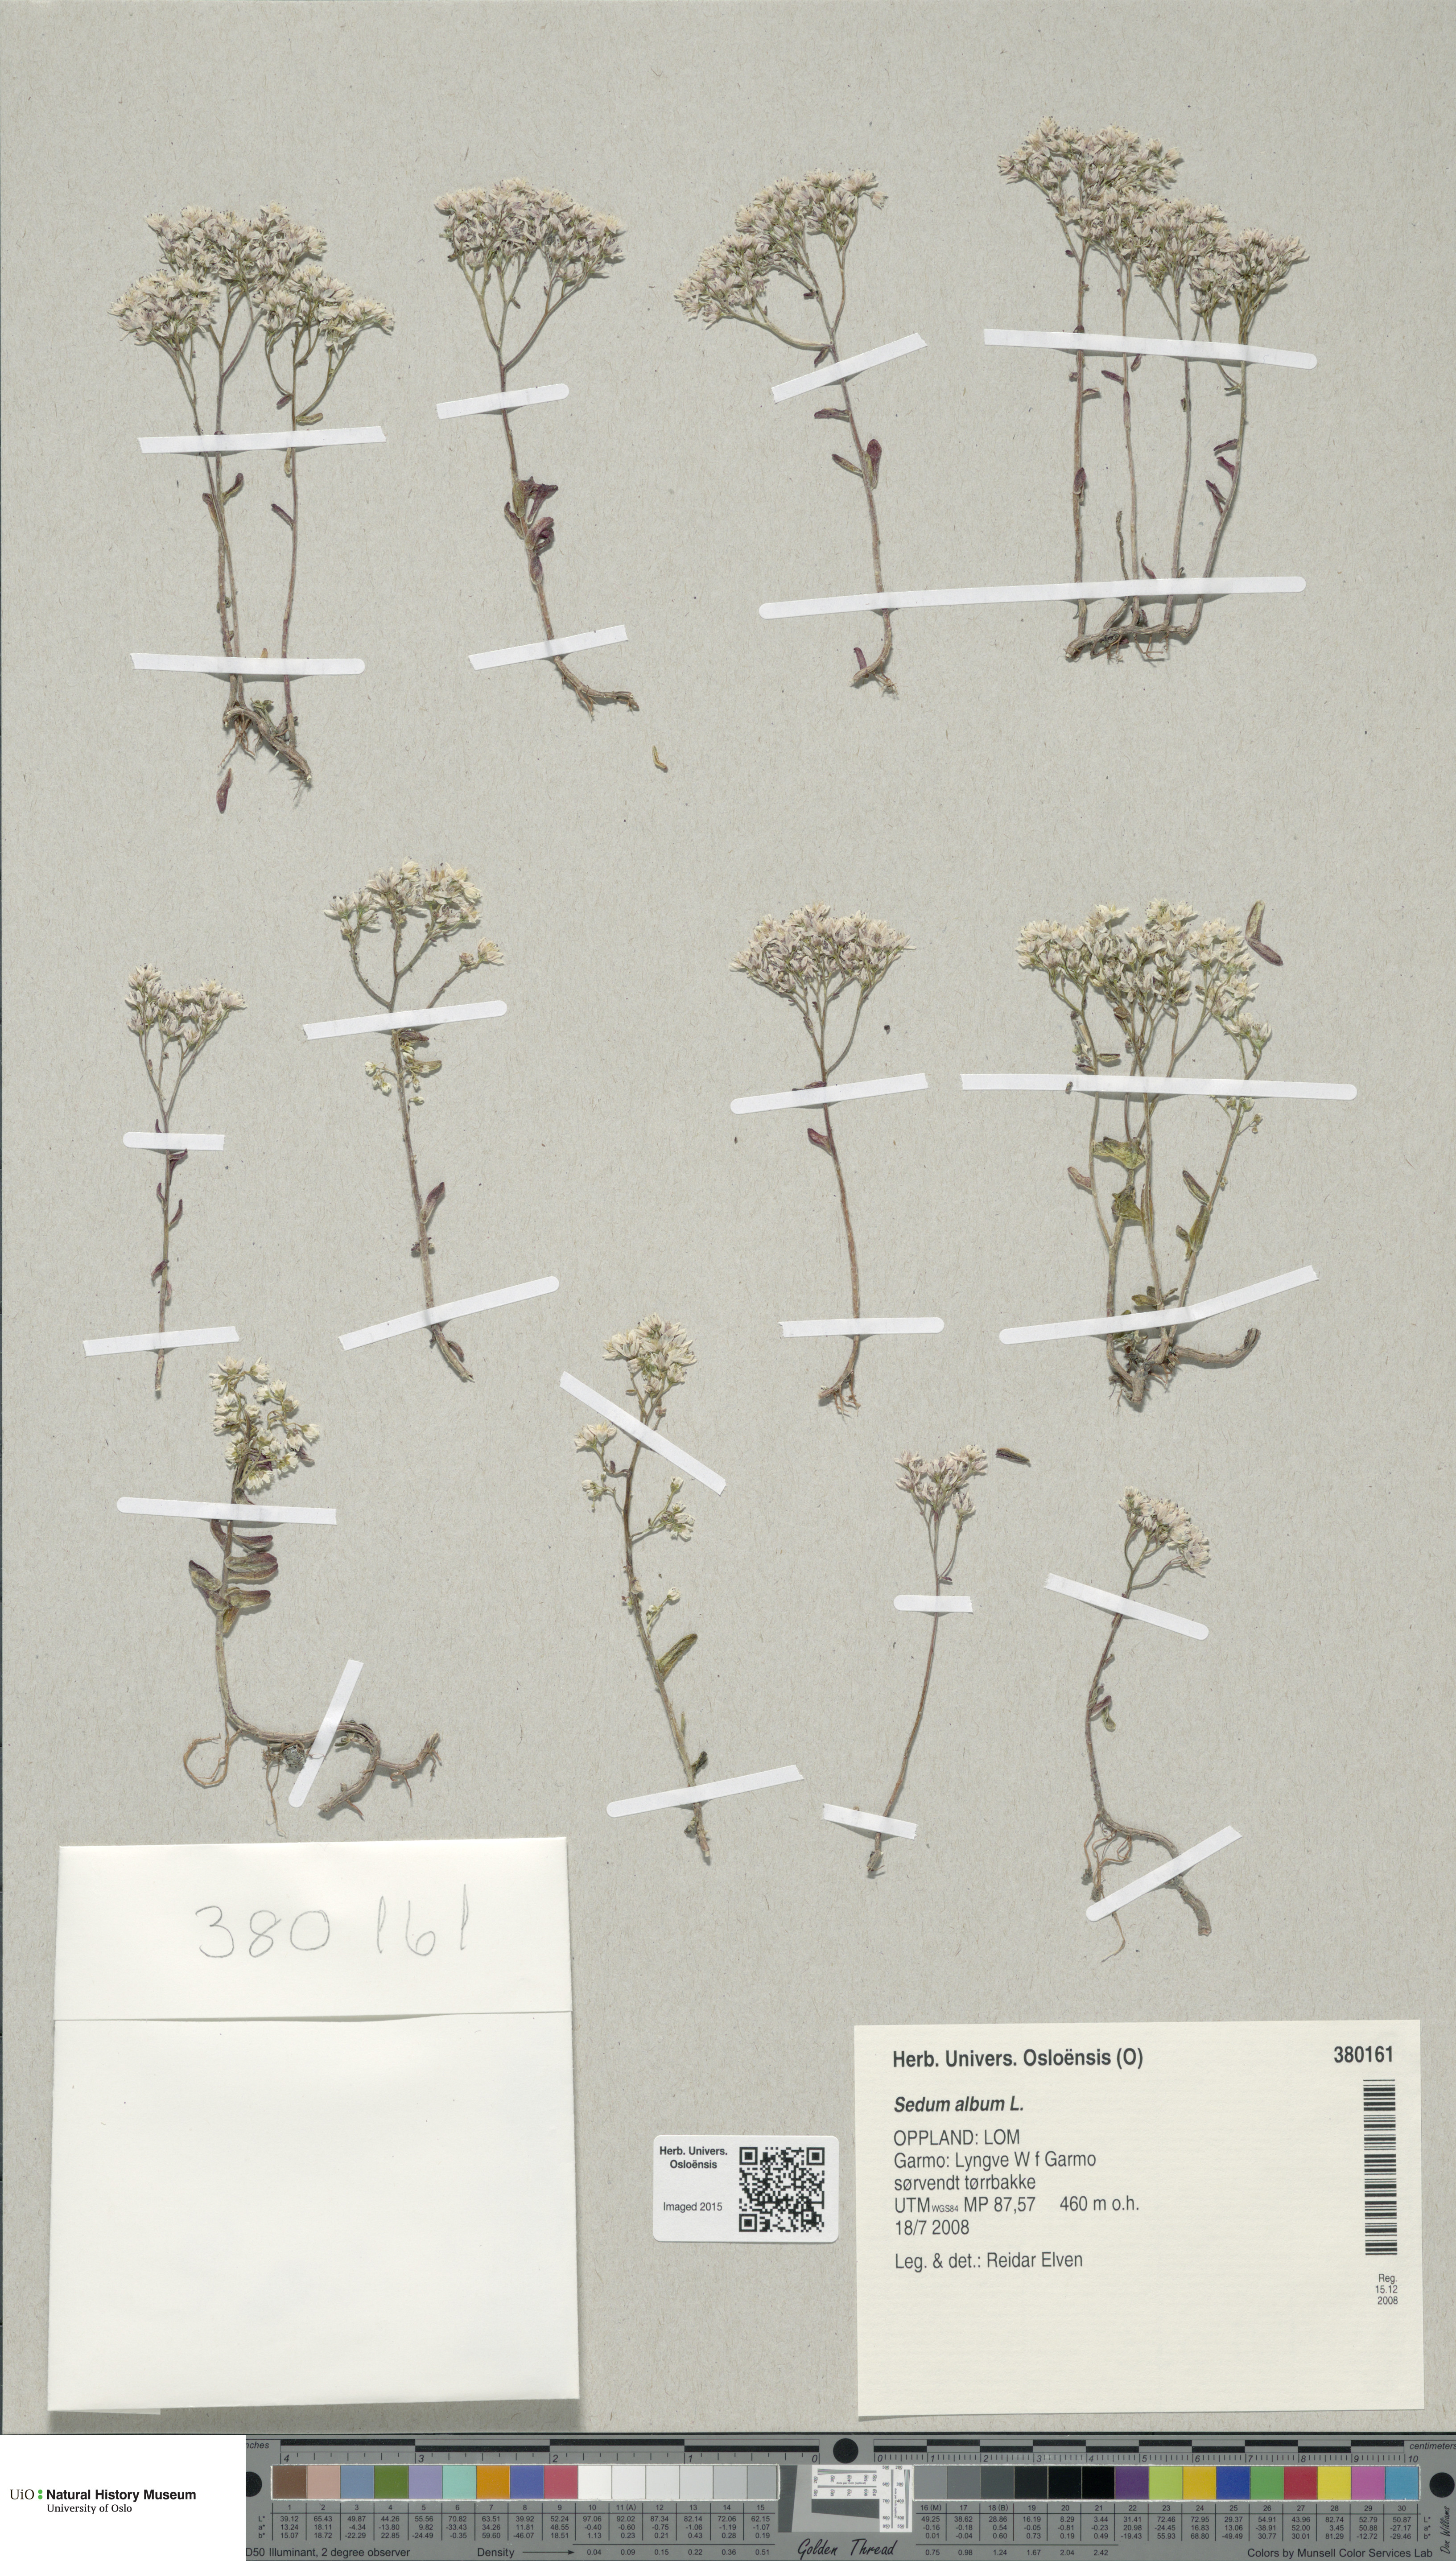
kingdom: Plantae
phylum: Tracheophyta
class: Magnoliopsida
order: Saxifragales
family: Crassulaceae
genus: Sedum
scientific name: Sedum album
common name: White stonecrop
